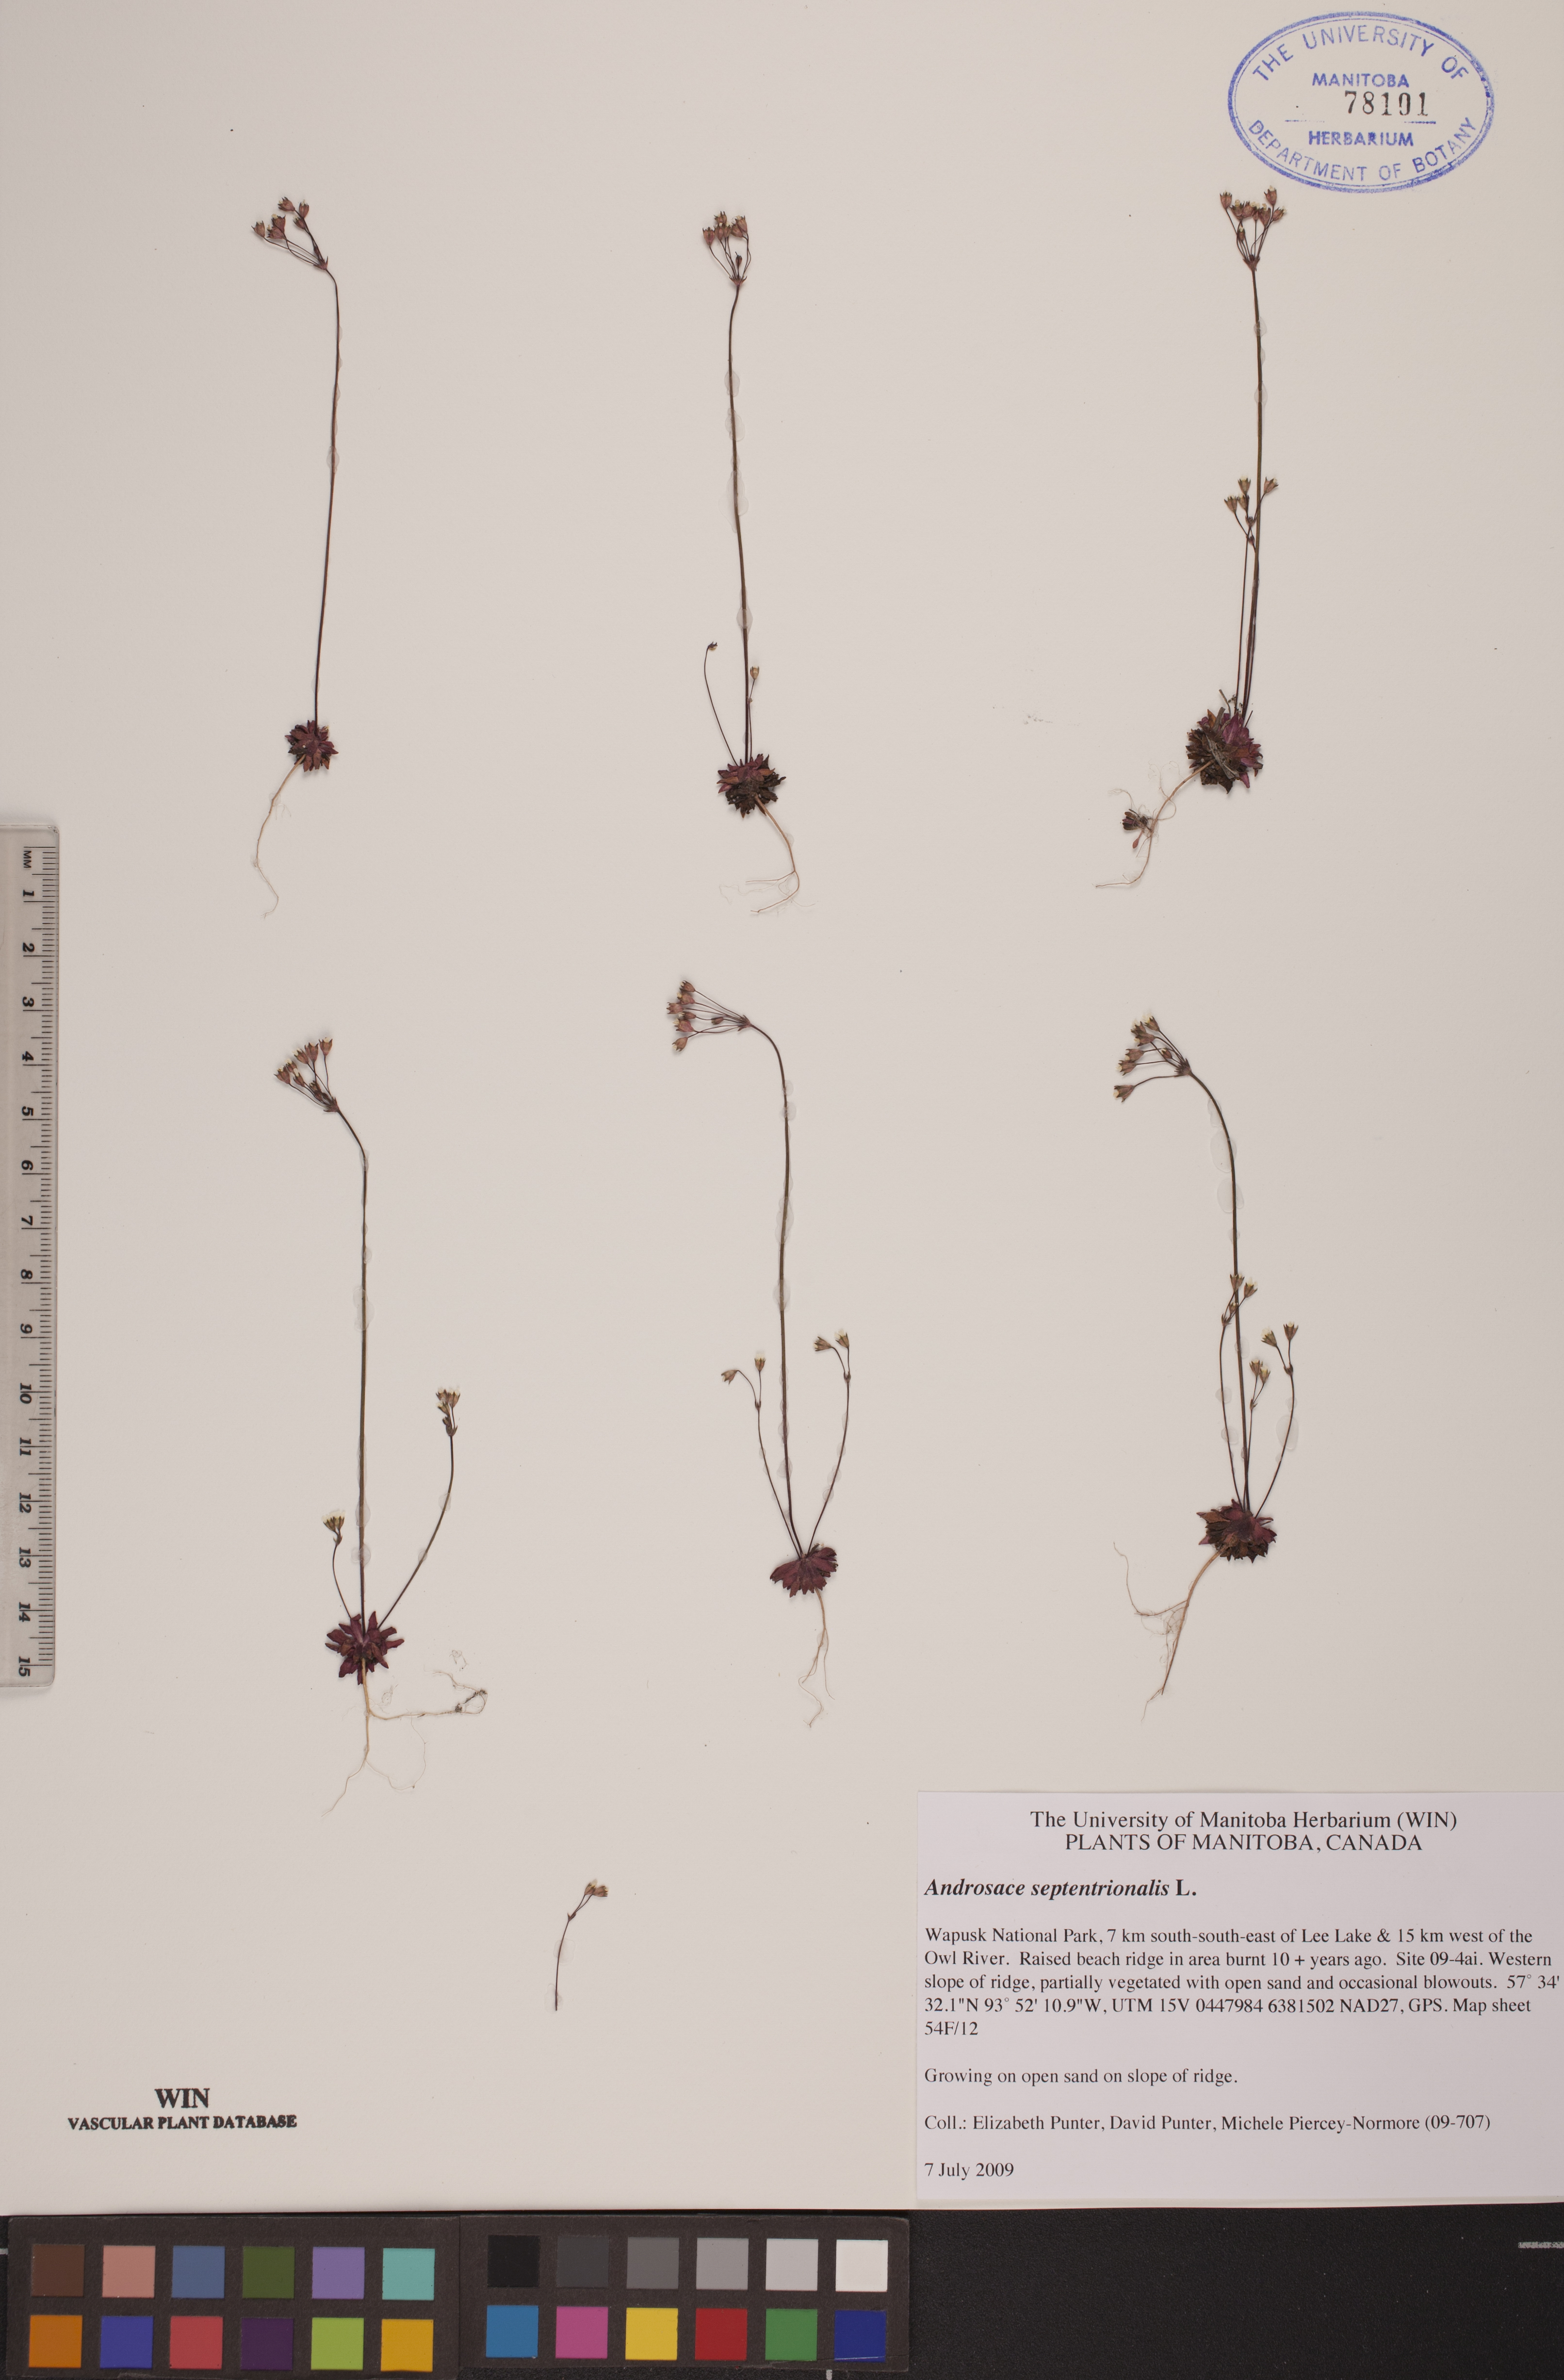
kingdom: Plantae
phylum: Tracheophyta
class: Magnoliopsida
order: Ericales
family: Primulaceae
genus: Androsace
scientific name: Androsace septentrionalis
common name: Hairy northern fairy-candelabra
